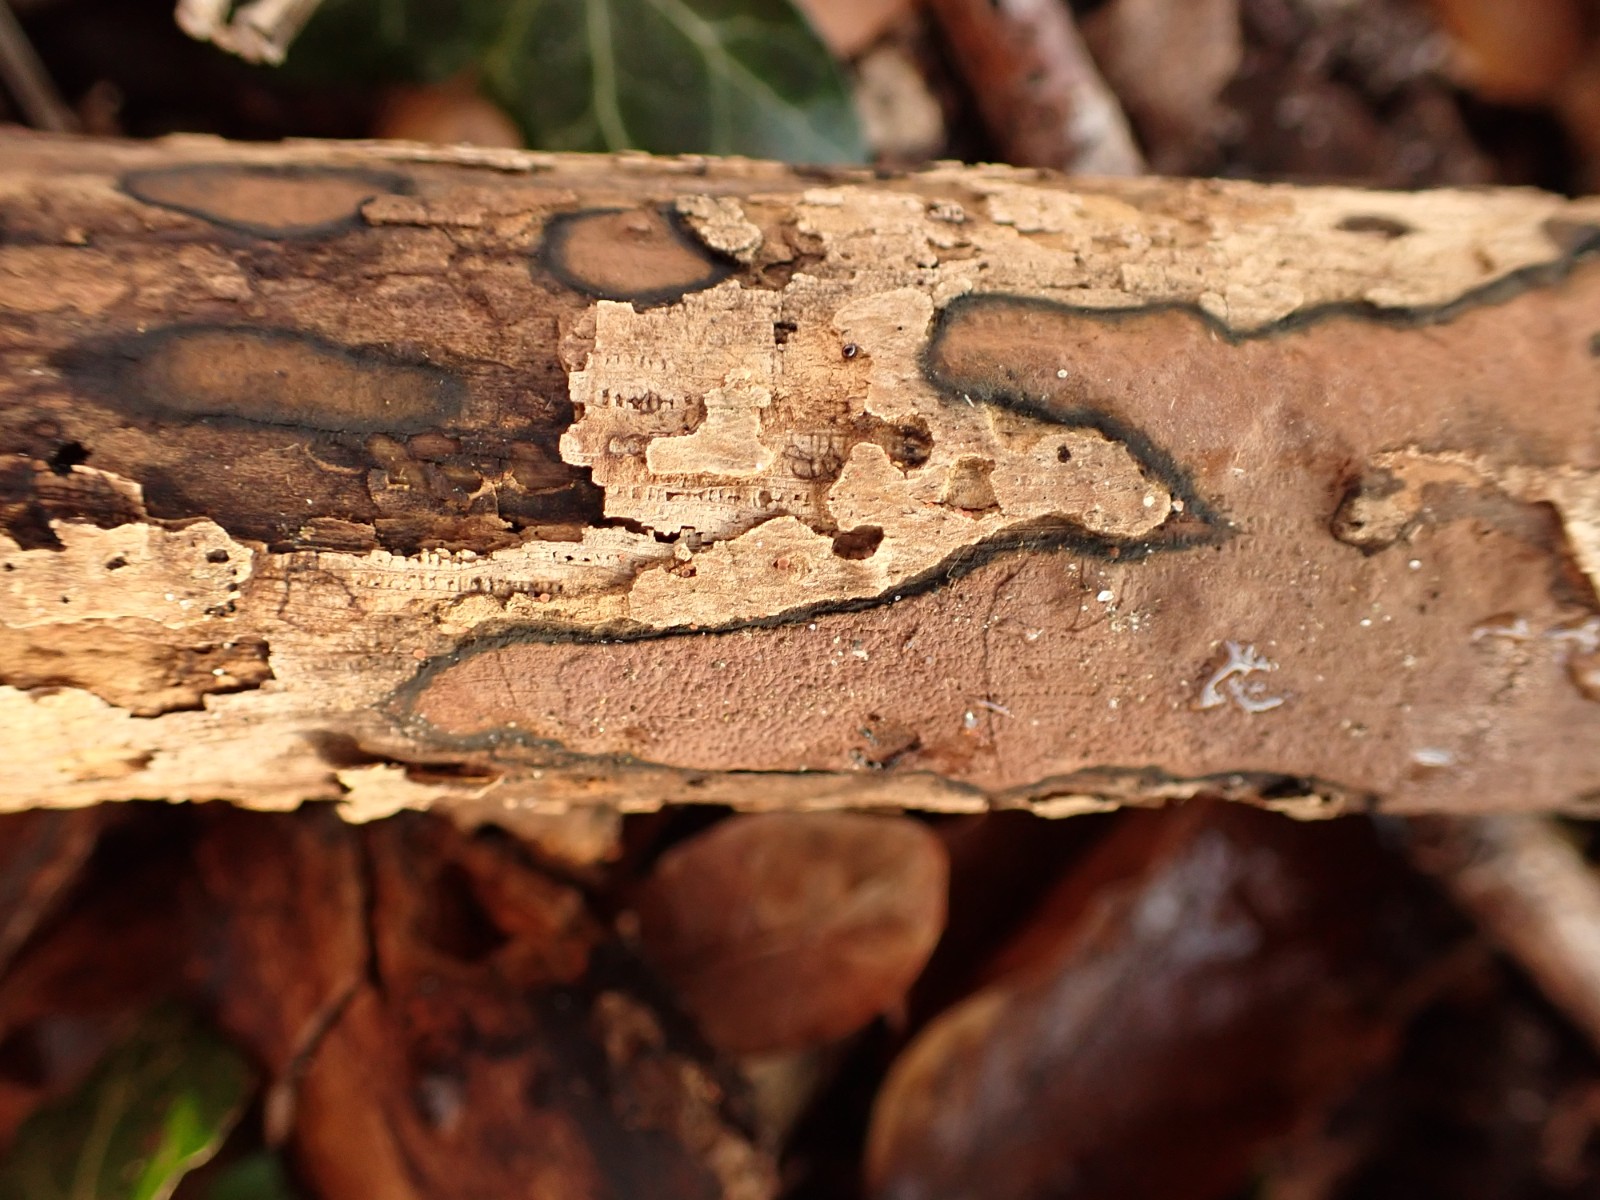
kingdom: Fungi
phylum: Ascomycota
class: Sordariomycetes
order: Xylariales
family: Hypoxylaceae
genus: Hypoxylon
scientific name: Hypoxylon petriniae
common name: nedsænket kulbær
